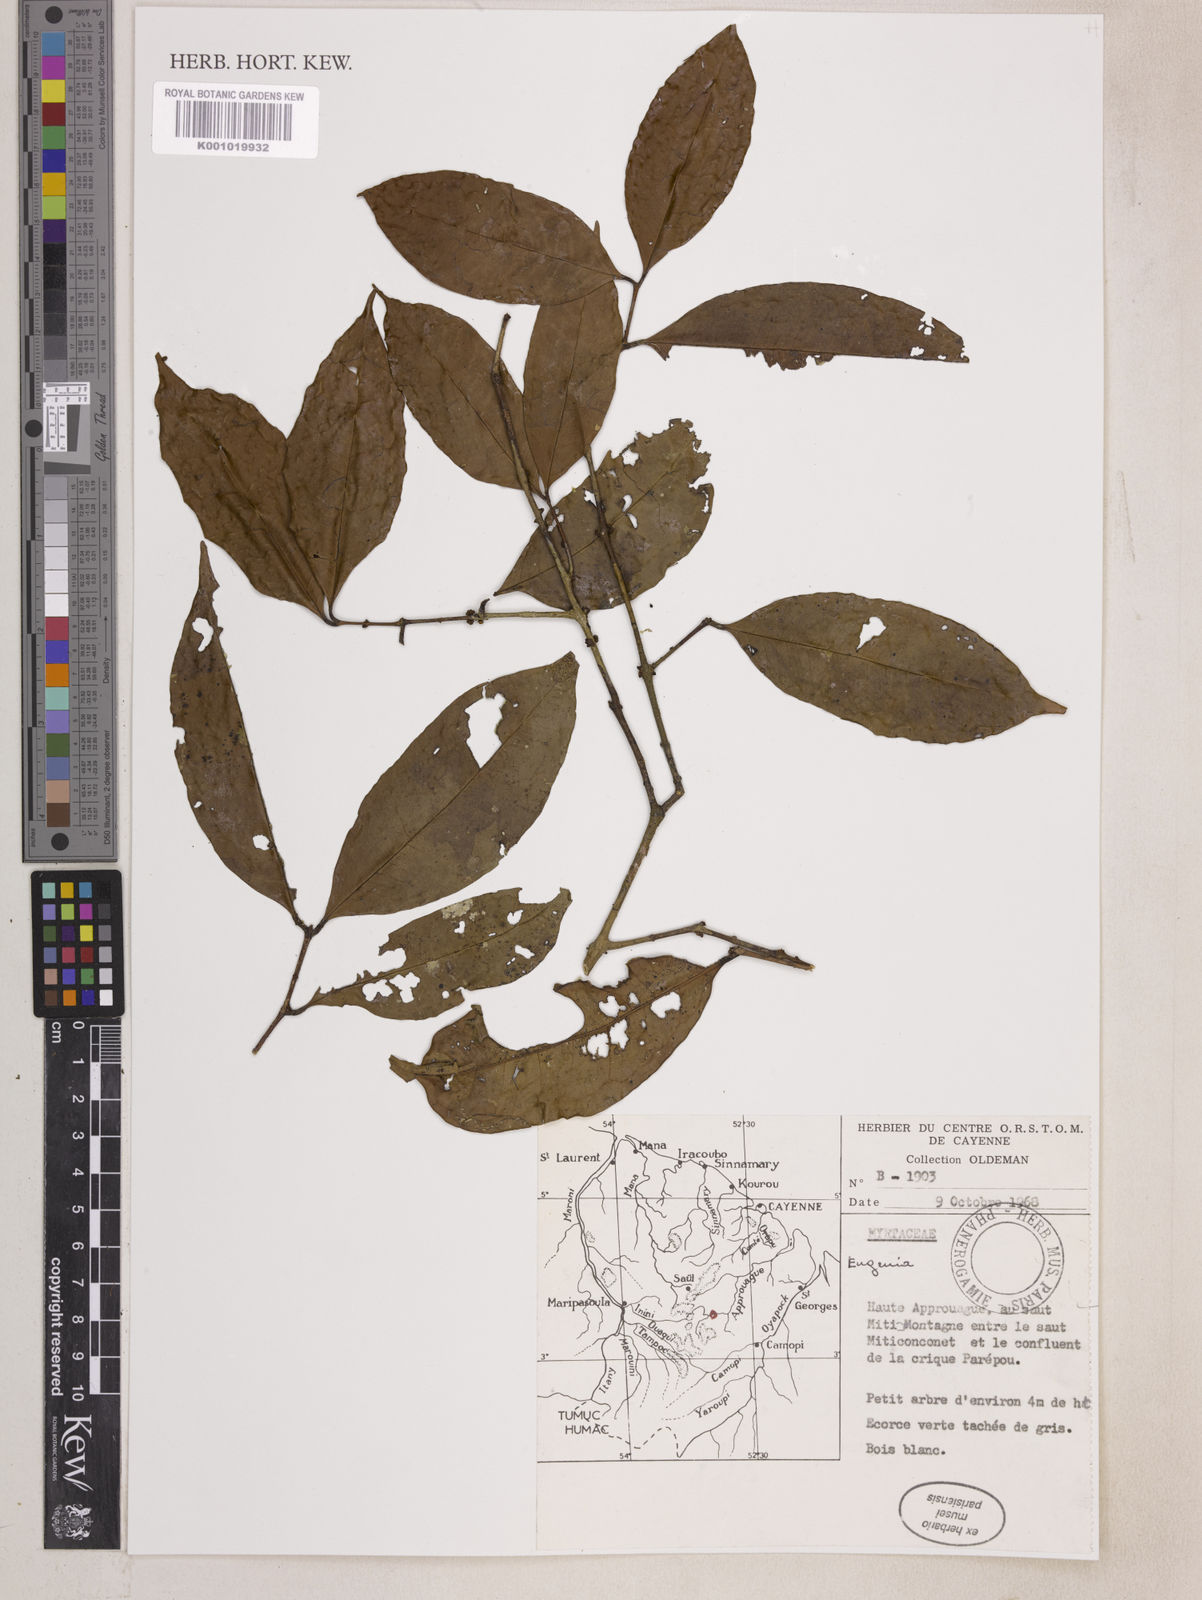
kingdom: Plantae
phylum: Tracheophyta
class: Magnoliopsida
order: Myrtales
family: Myrtaceae
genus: Eugenia
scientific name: Eugenia
